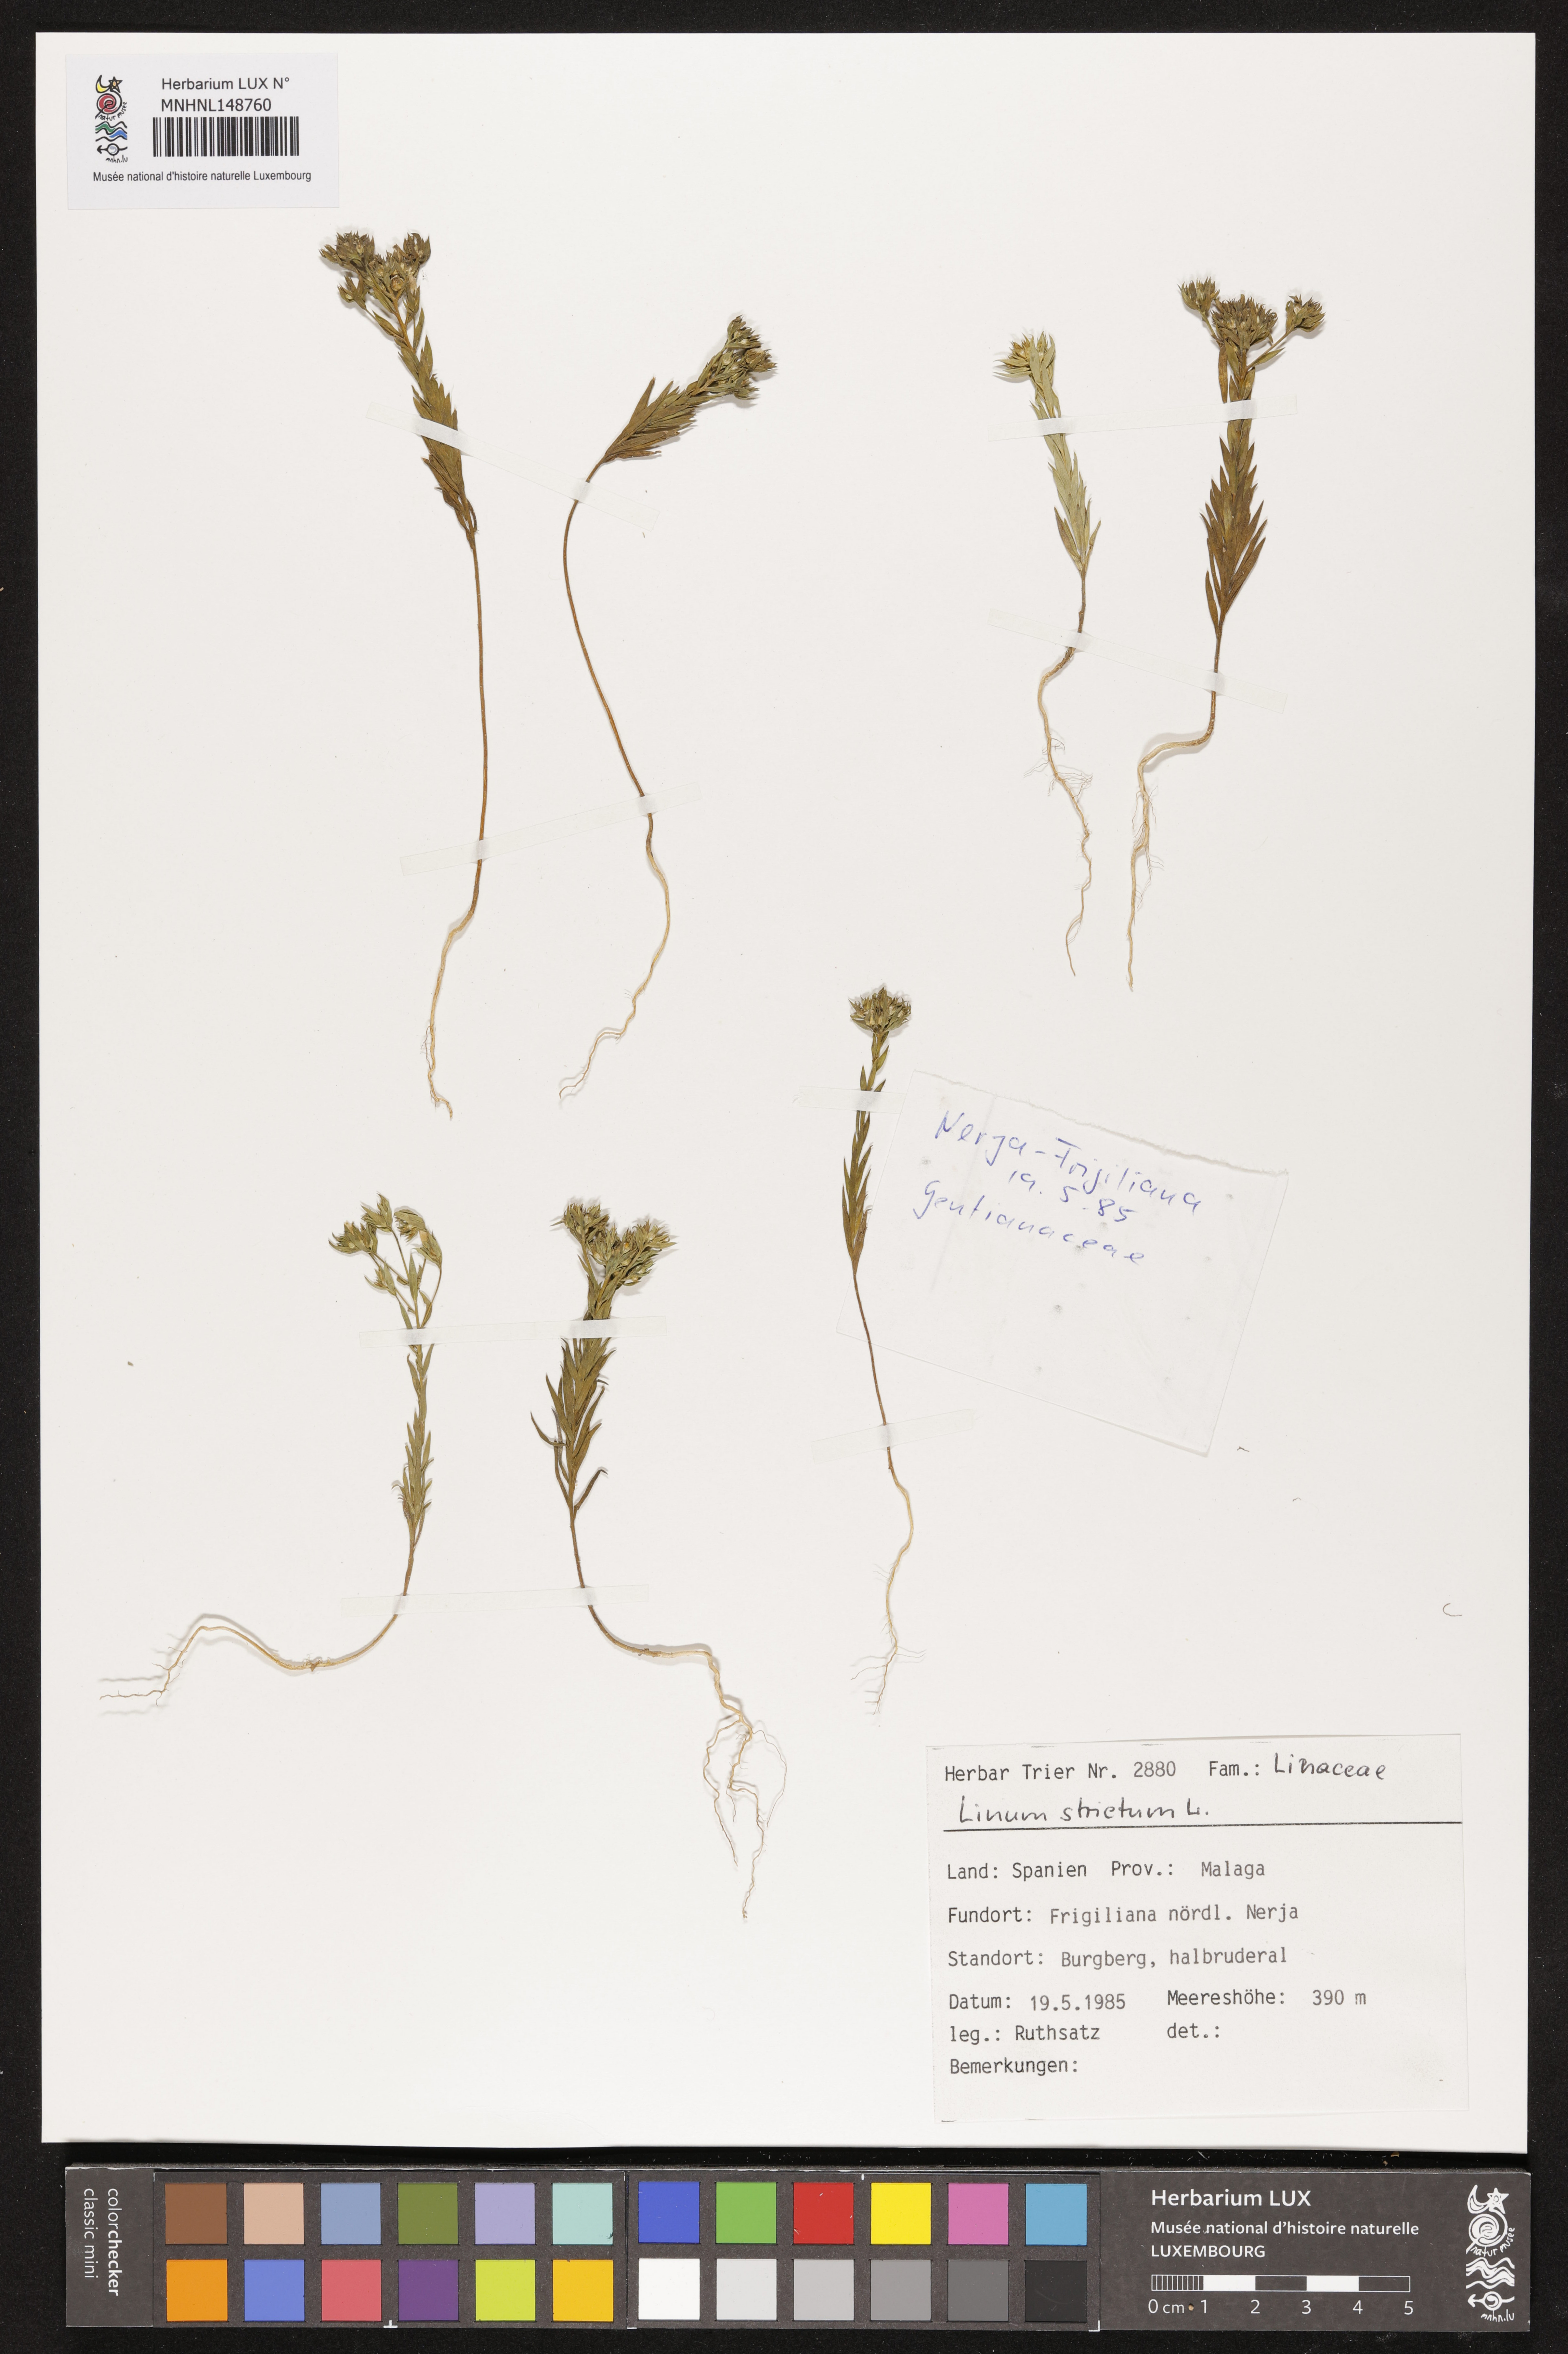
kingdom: Plantae
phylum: Tracheophyta
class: Magnoliopsida
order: Malpighiales
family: Linaceae
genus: Linum
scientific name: Linum strictum
